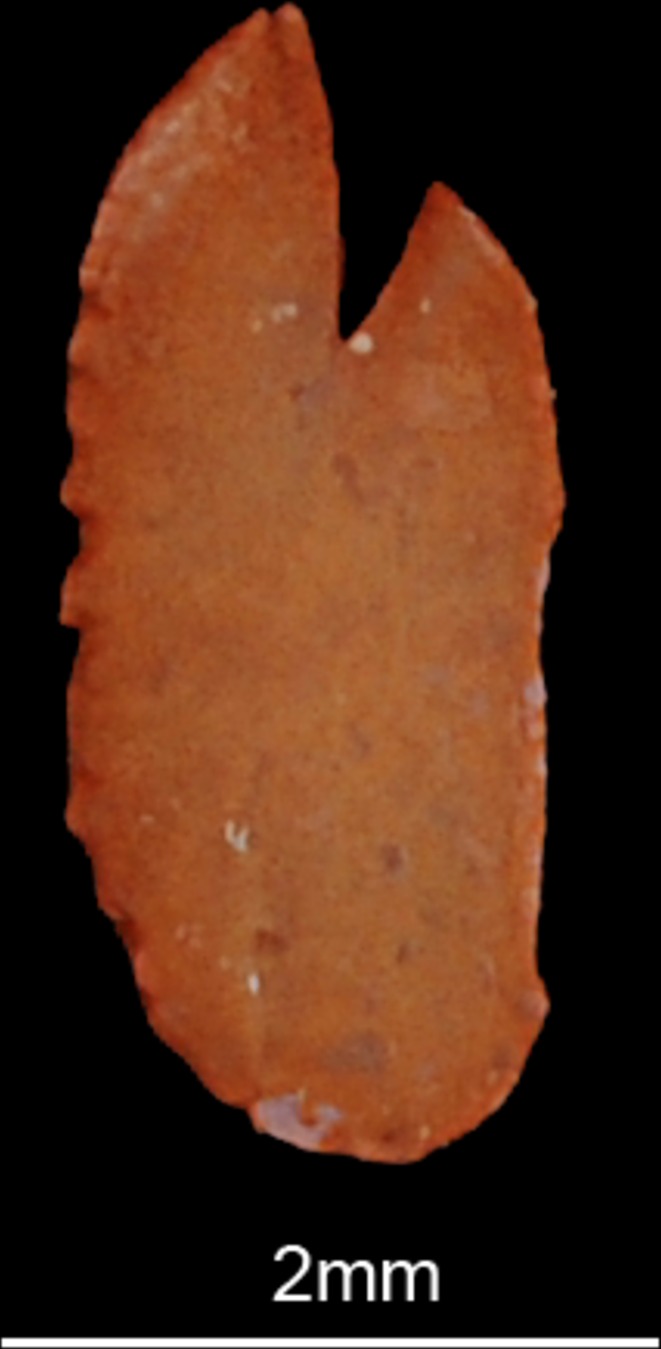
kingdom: Animalia
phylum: Chordata
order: Clupeiformes
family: Clupeidae
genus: Nematalosa
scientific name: Nematalosa nasus
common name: Bloch's gizzard shad
